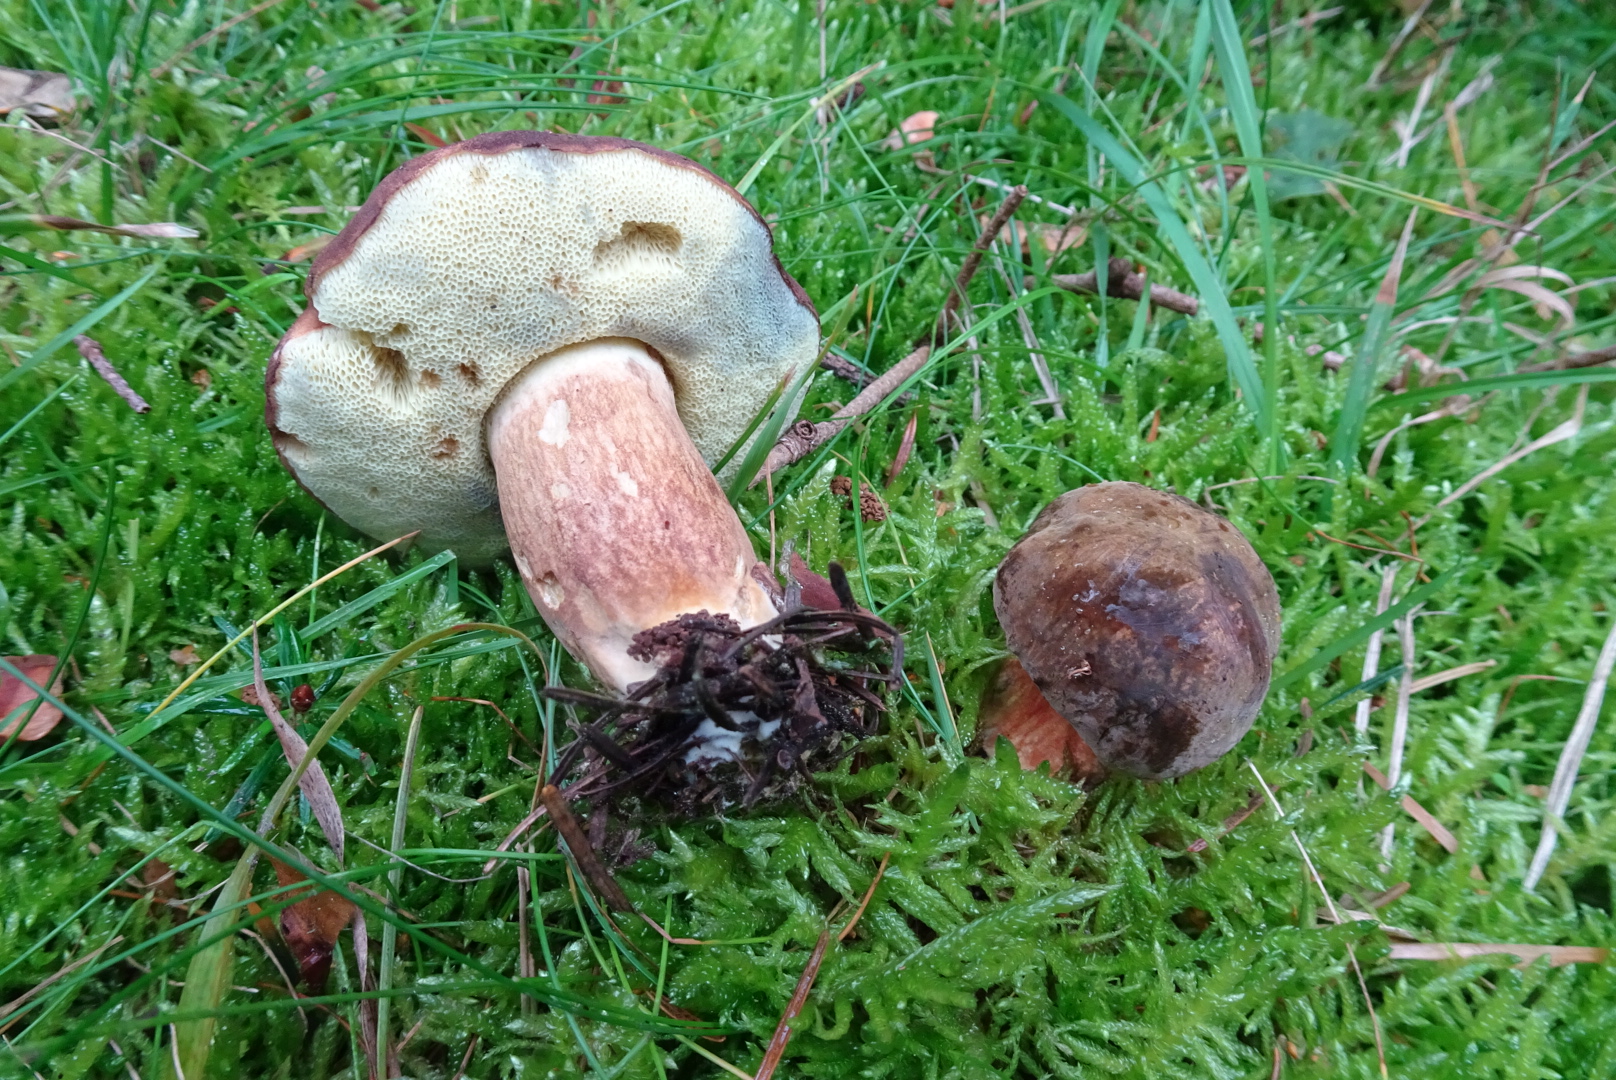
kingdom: Fungi
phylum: Basidiomycota
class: Agaricomycetes
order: Boletales
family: Boletaceae
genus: Imleria
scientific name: Imleria badia
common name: brunstokket rørhat
